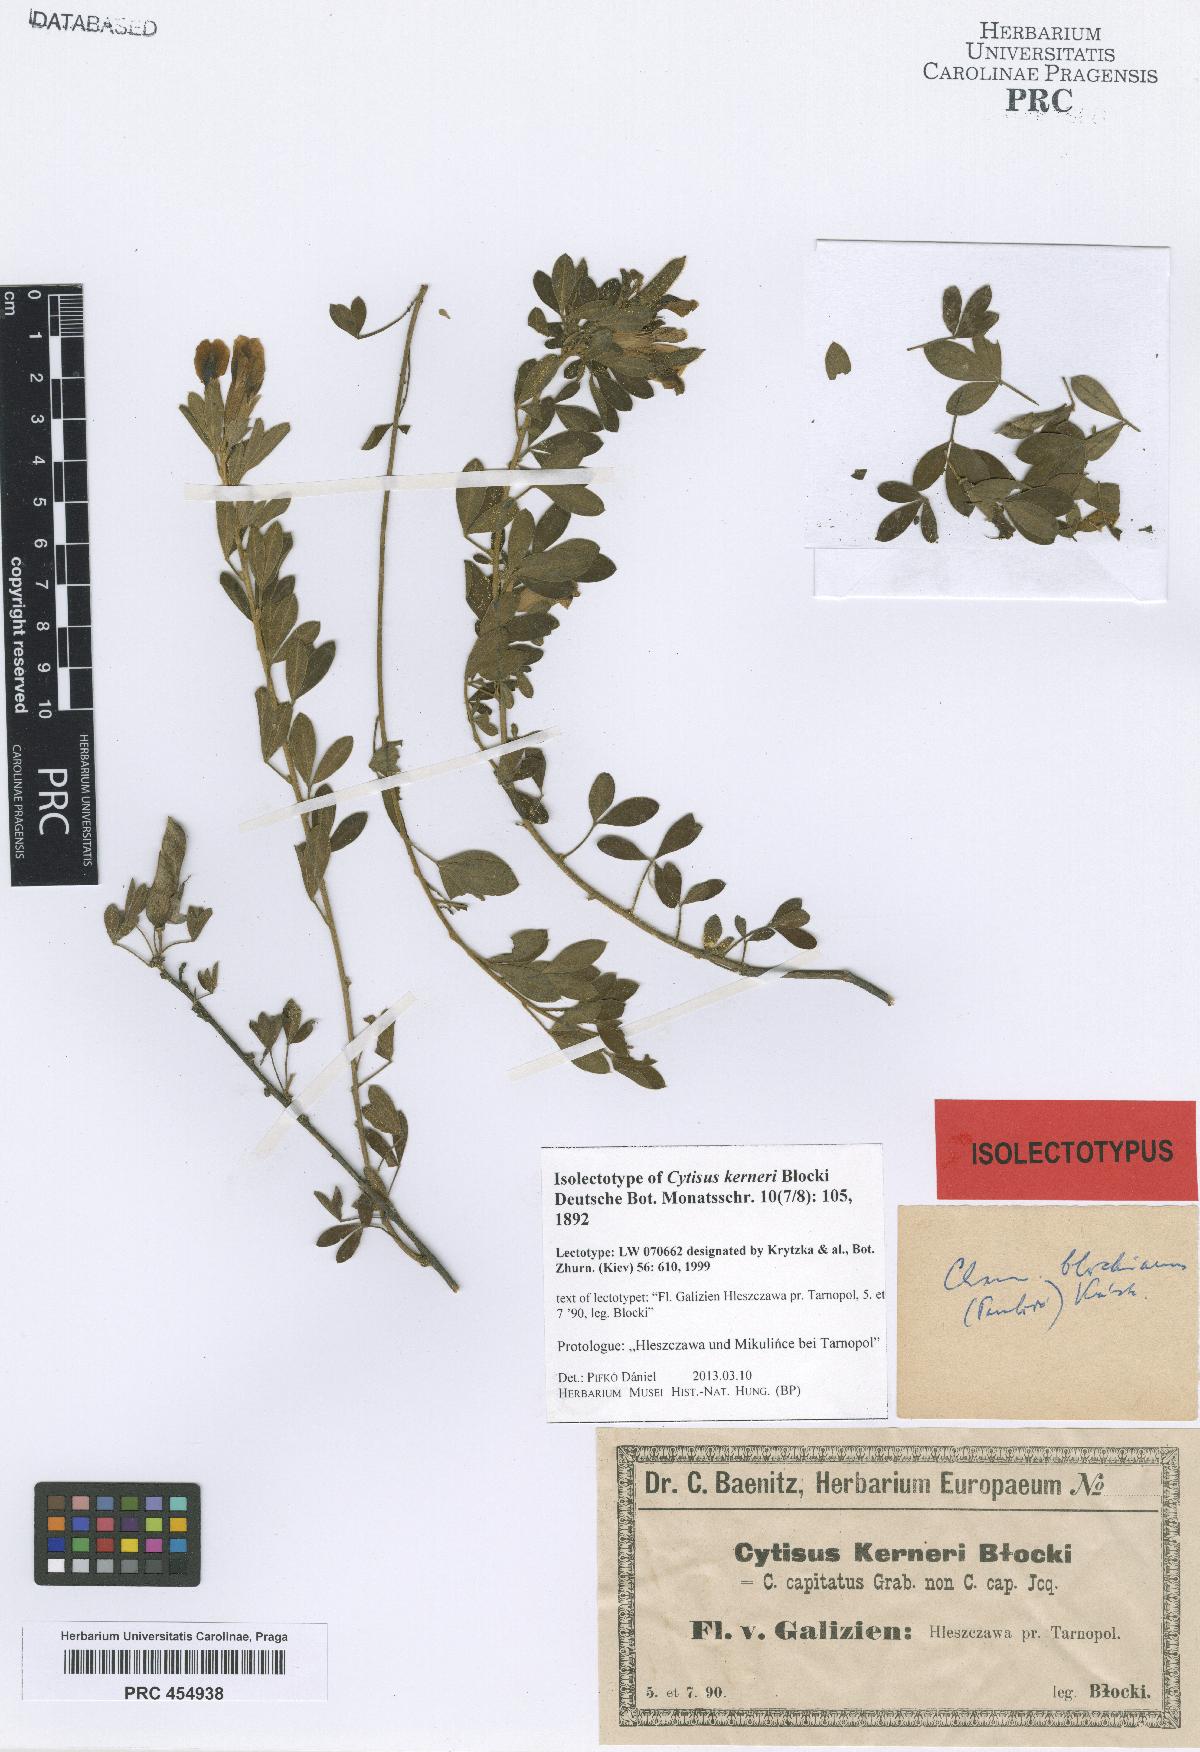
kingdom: Plantae
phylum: Tracheophyta
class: Magnoliopsida
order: Fabales
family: Fabaceae
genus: Cytisus
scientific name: Cytisus kerneri
